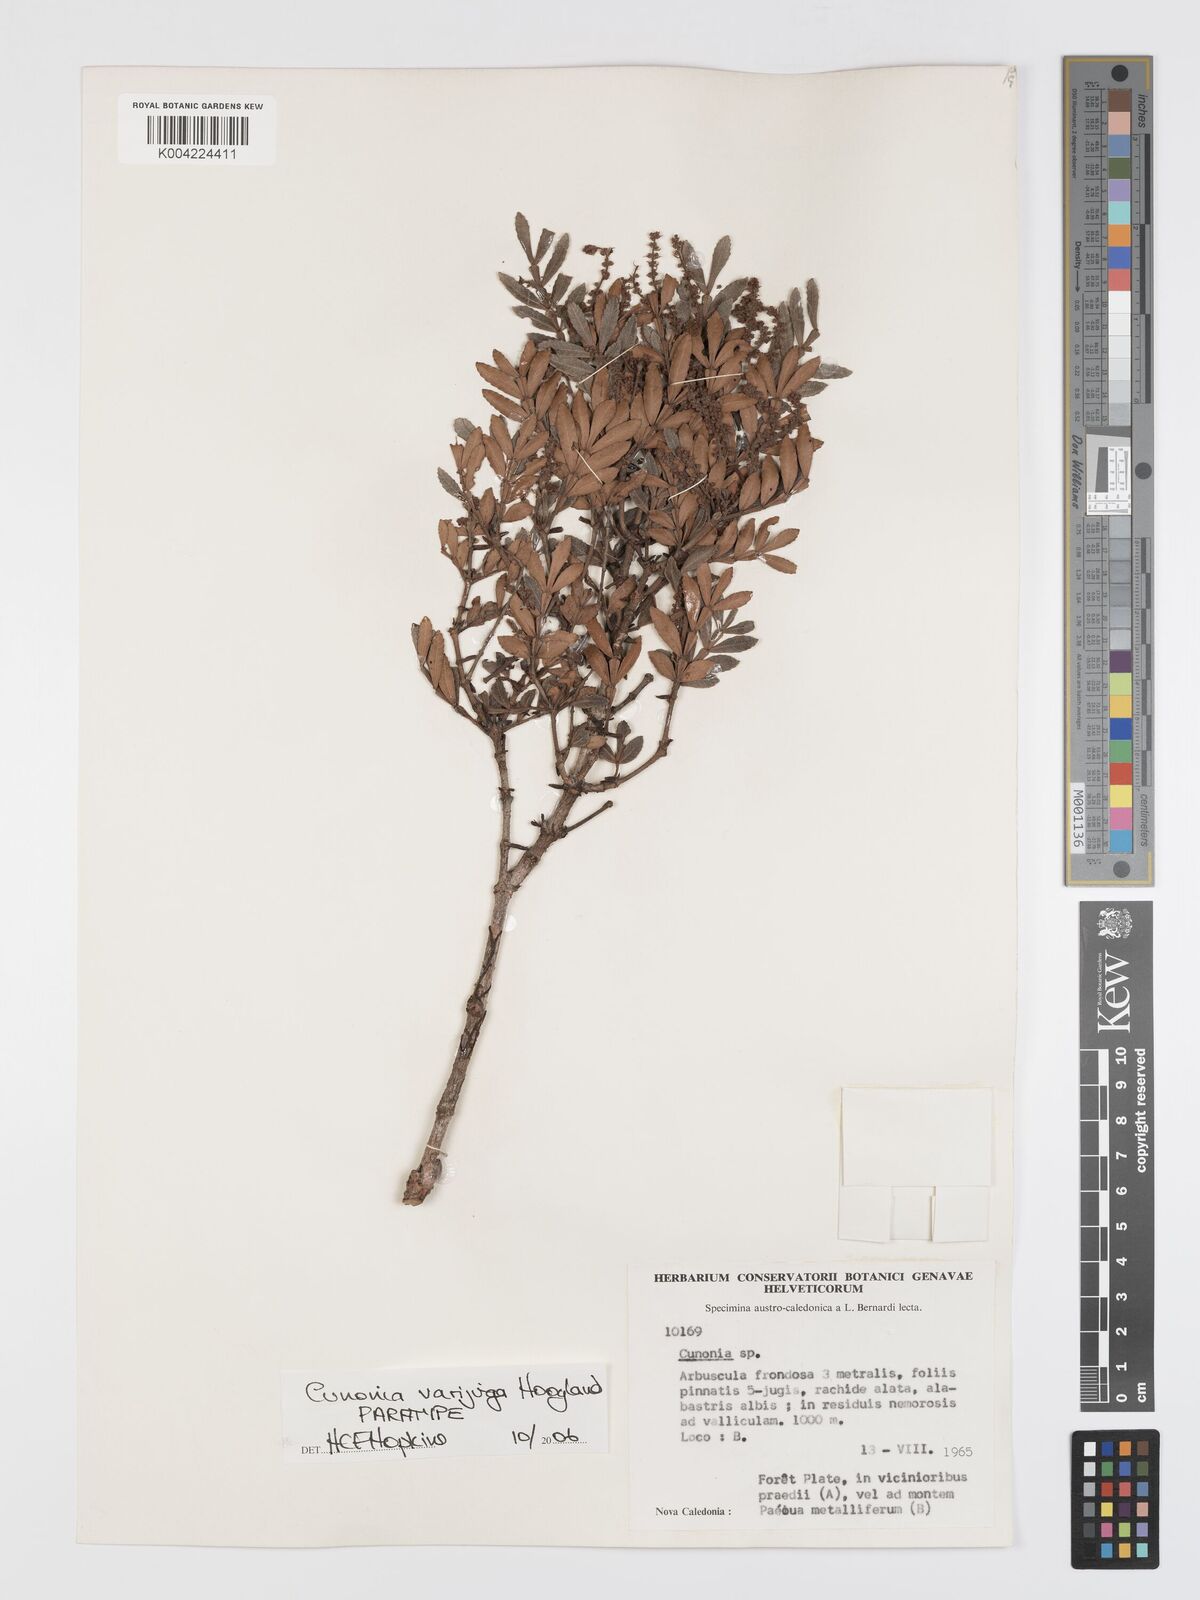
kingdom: Plantae
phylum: Tracheophyta
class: Magnoliopsida
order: Oxalidales
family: Cunoniaceae
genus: Cunonia
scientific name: Cunonia varijuga
